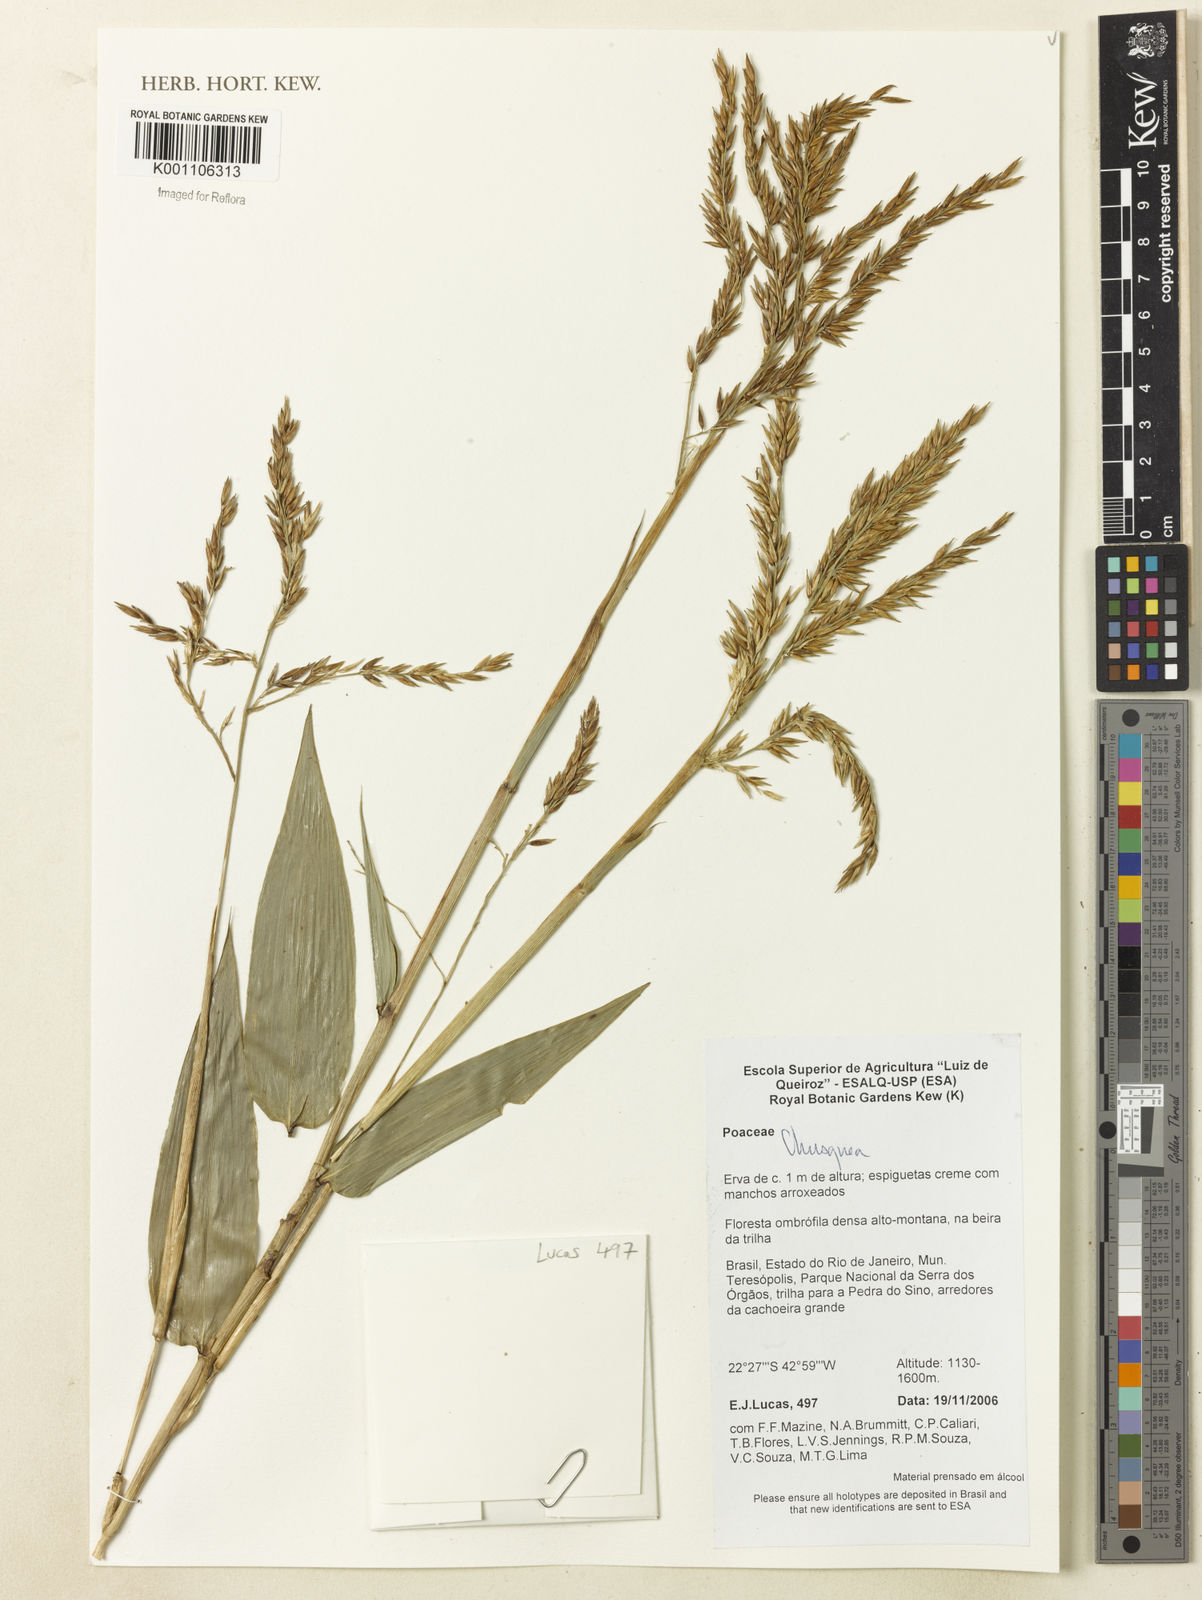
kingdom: Plantae
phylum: Tracheophyta
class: Liliopsida
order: Poales
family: Poaceae
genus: Chusquea
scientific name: Chusquea
